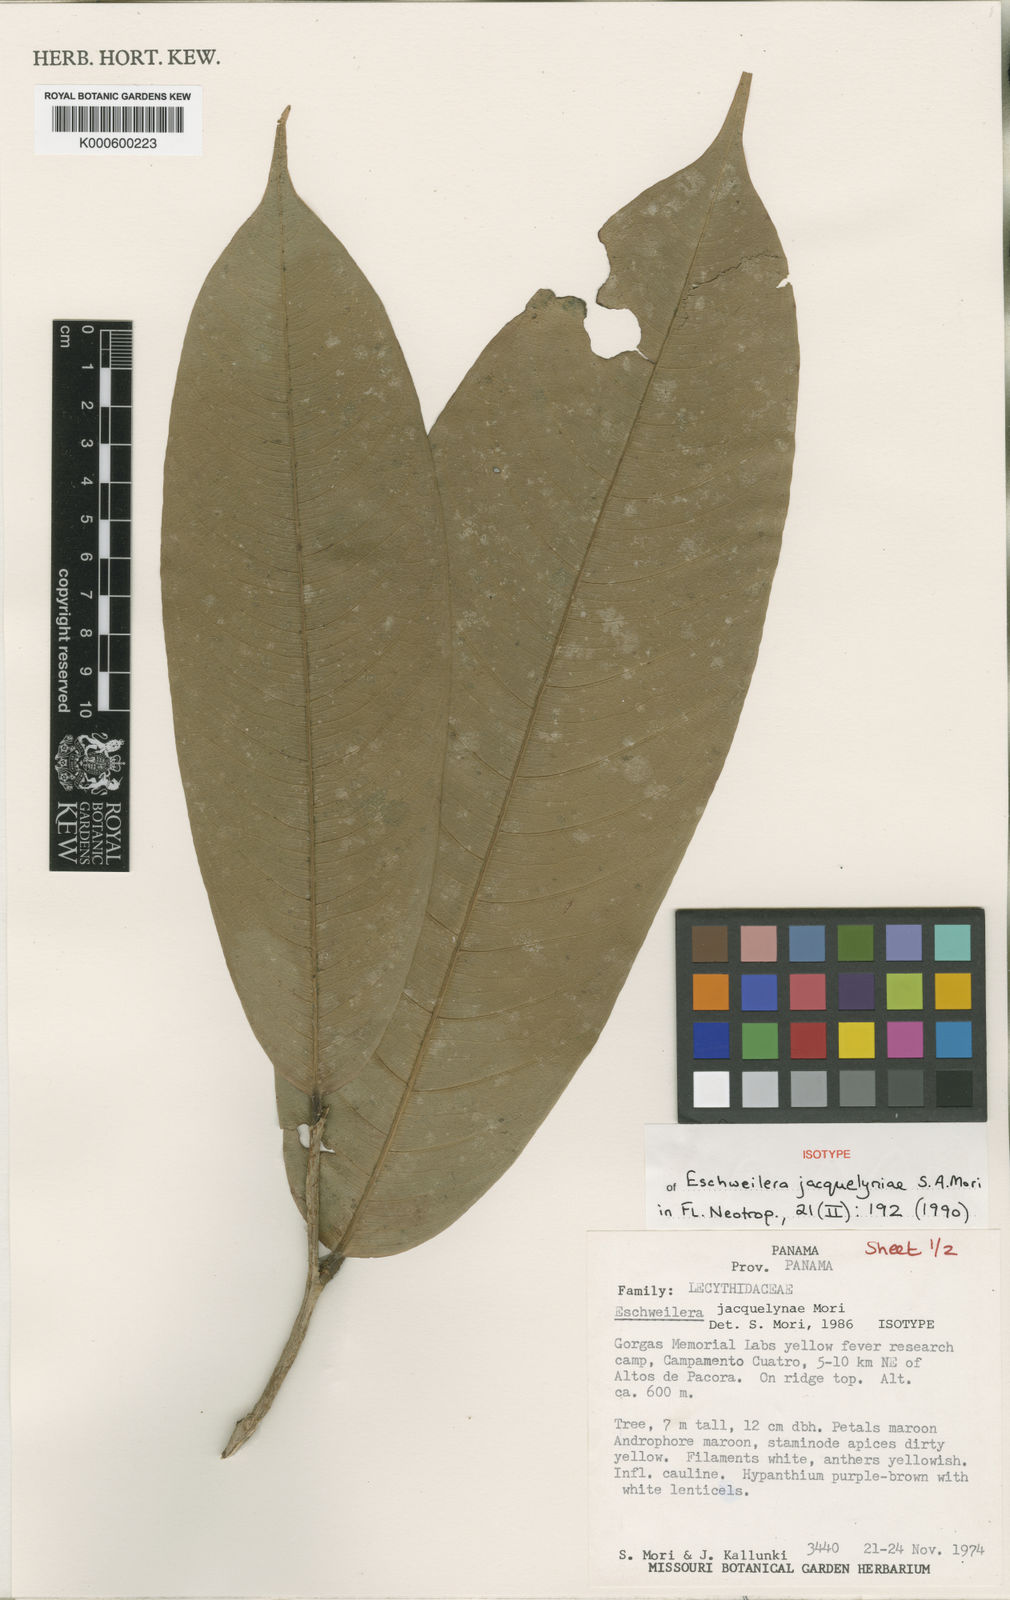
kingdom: Plantae
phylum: Tracheophyta
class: Magnoliopsida
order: Ericales
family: Lecythidaceae
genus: Eschweilera
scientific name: Eschweilera jacquelyniae
